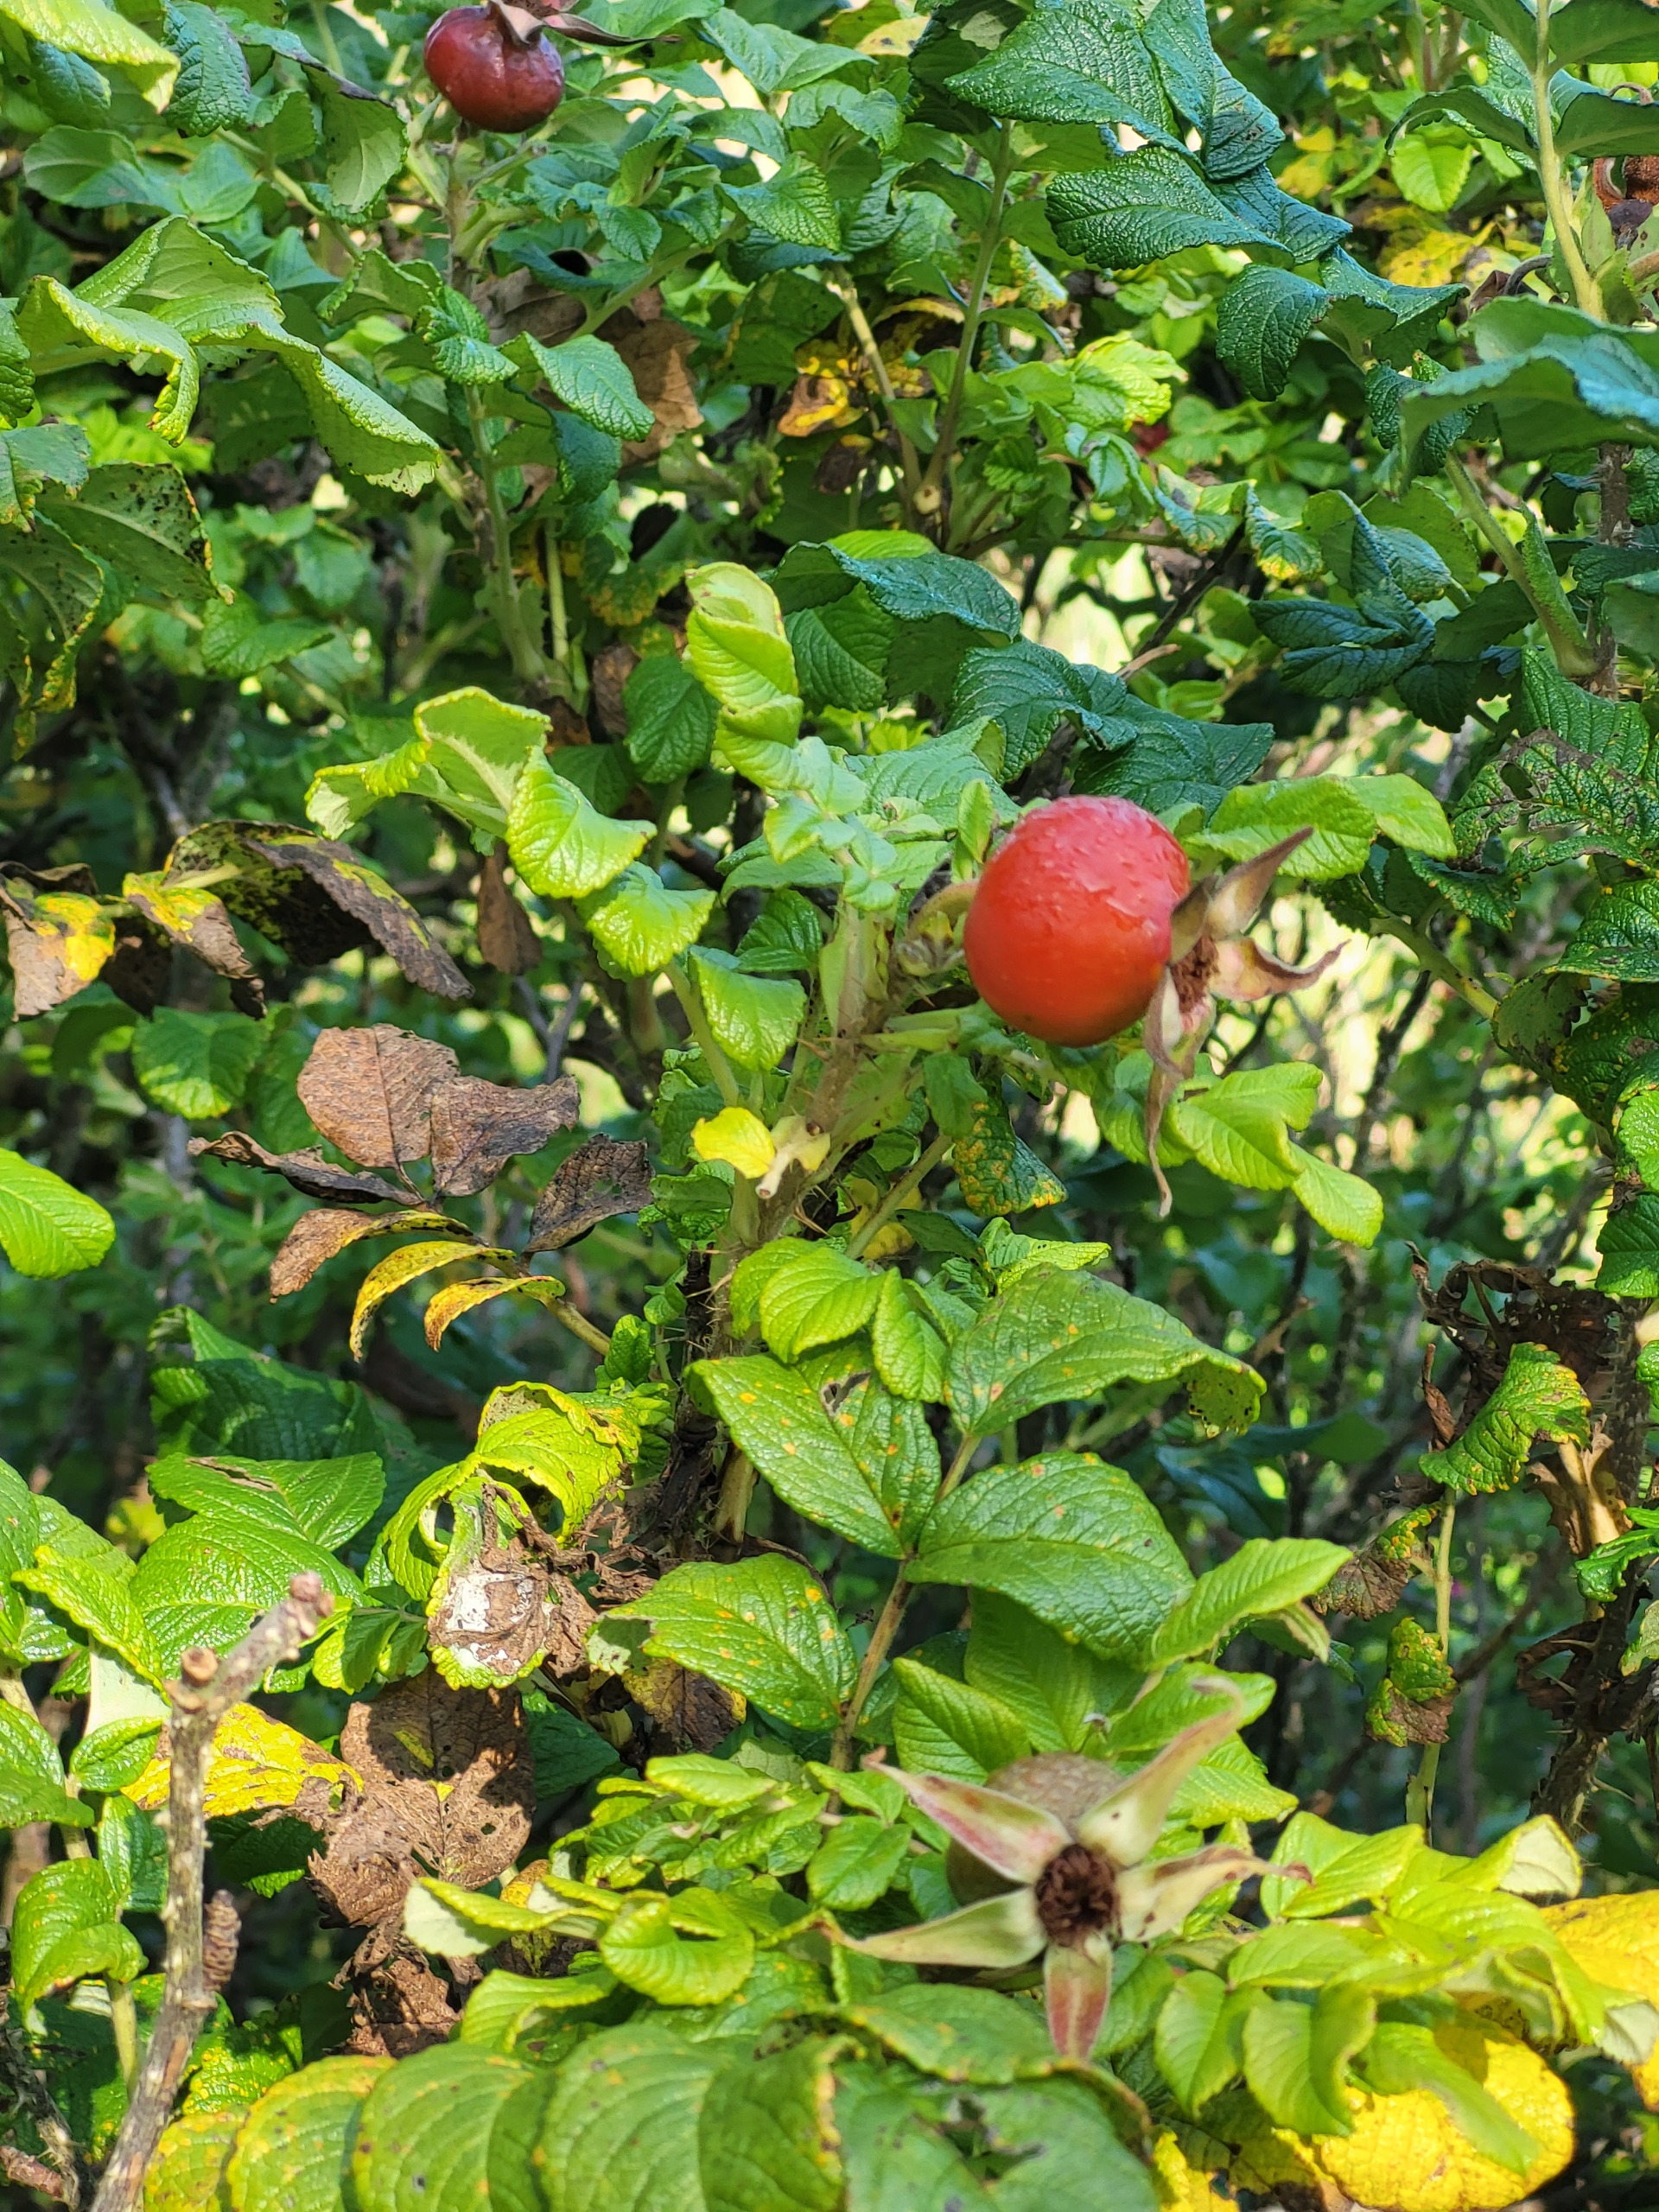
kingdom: Plantae
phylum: Tracheophyta
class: Magnoliopsida
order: Rosales
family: Rosaceae
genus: Rosa
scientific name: Rosa rugosa
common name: Rynket rose
